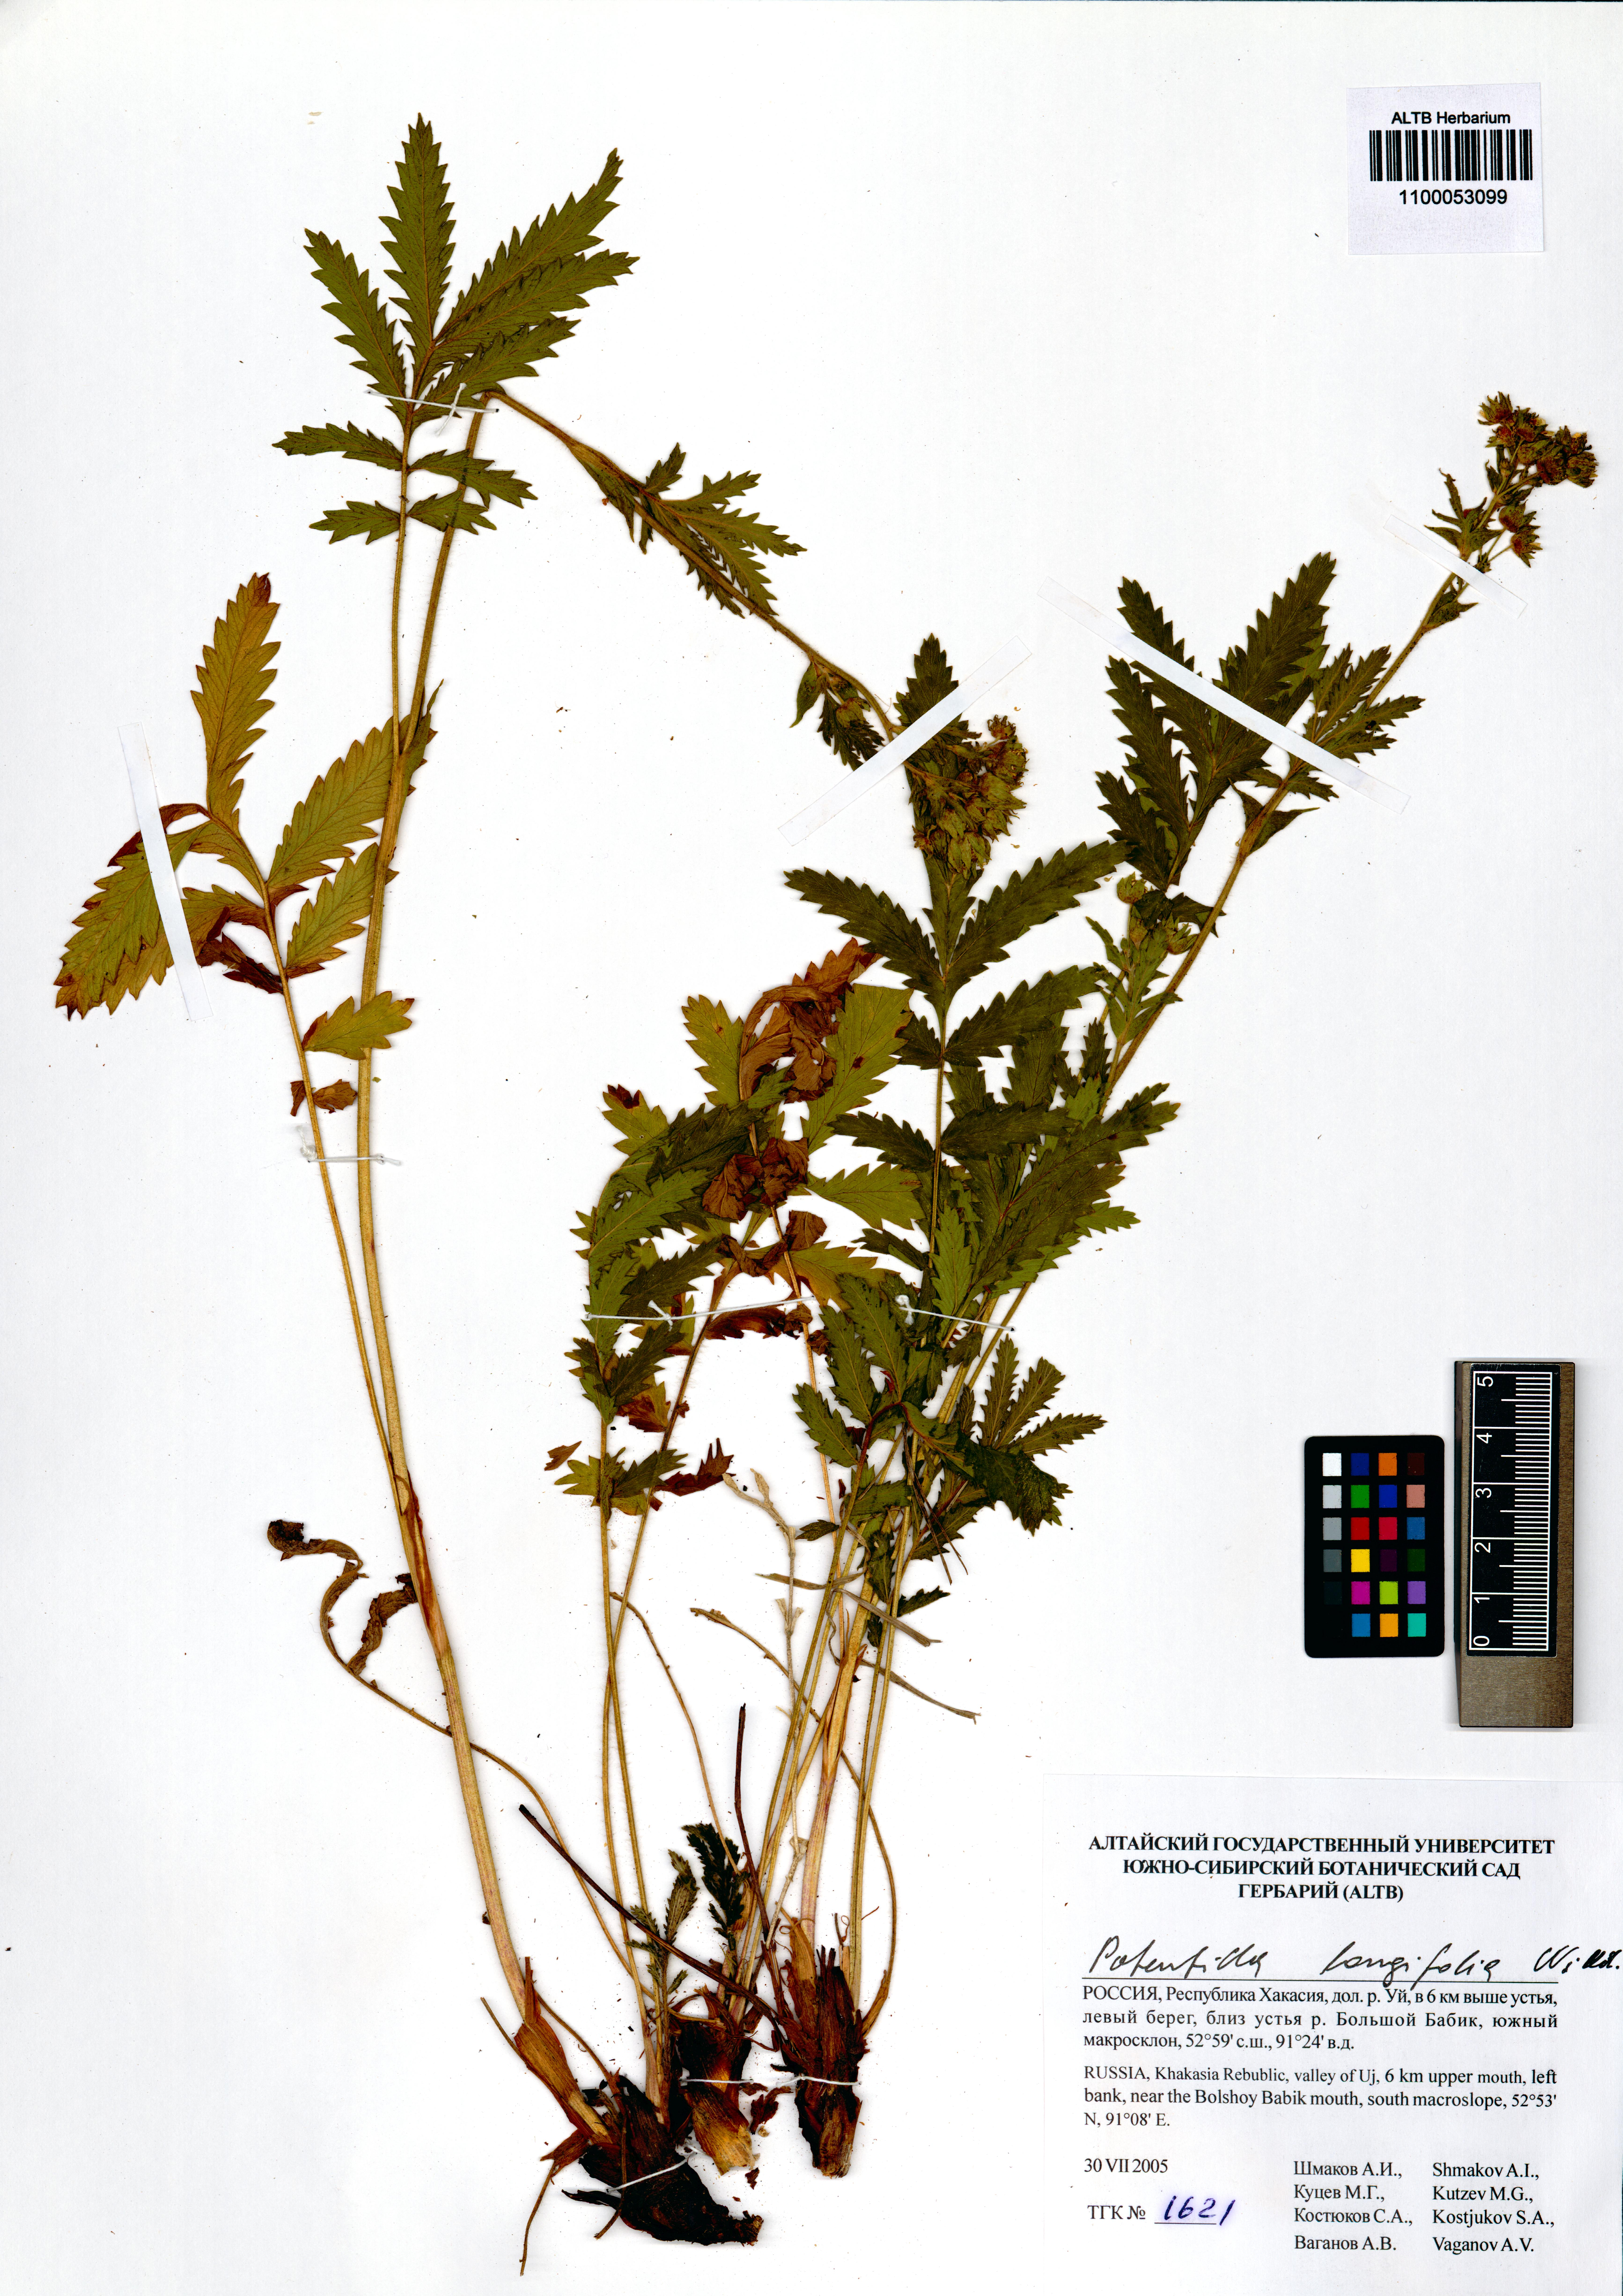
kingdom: Plantae
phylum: Tracheophyta
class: Magnoliopsida
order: Rosales
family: Rosaceae
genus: Potentilla
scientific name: Potentilla longifolia
